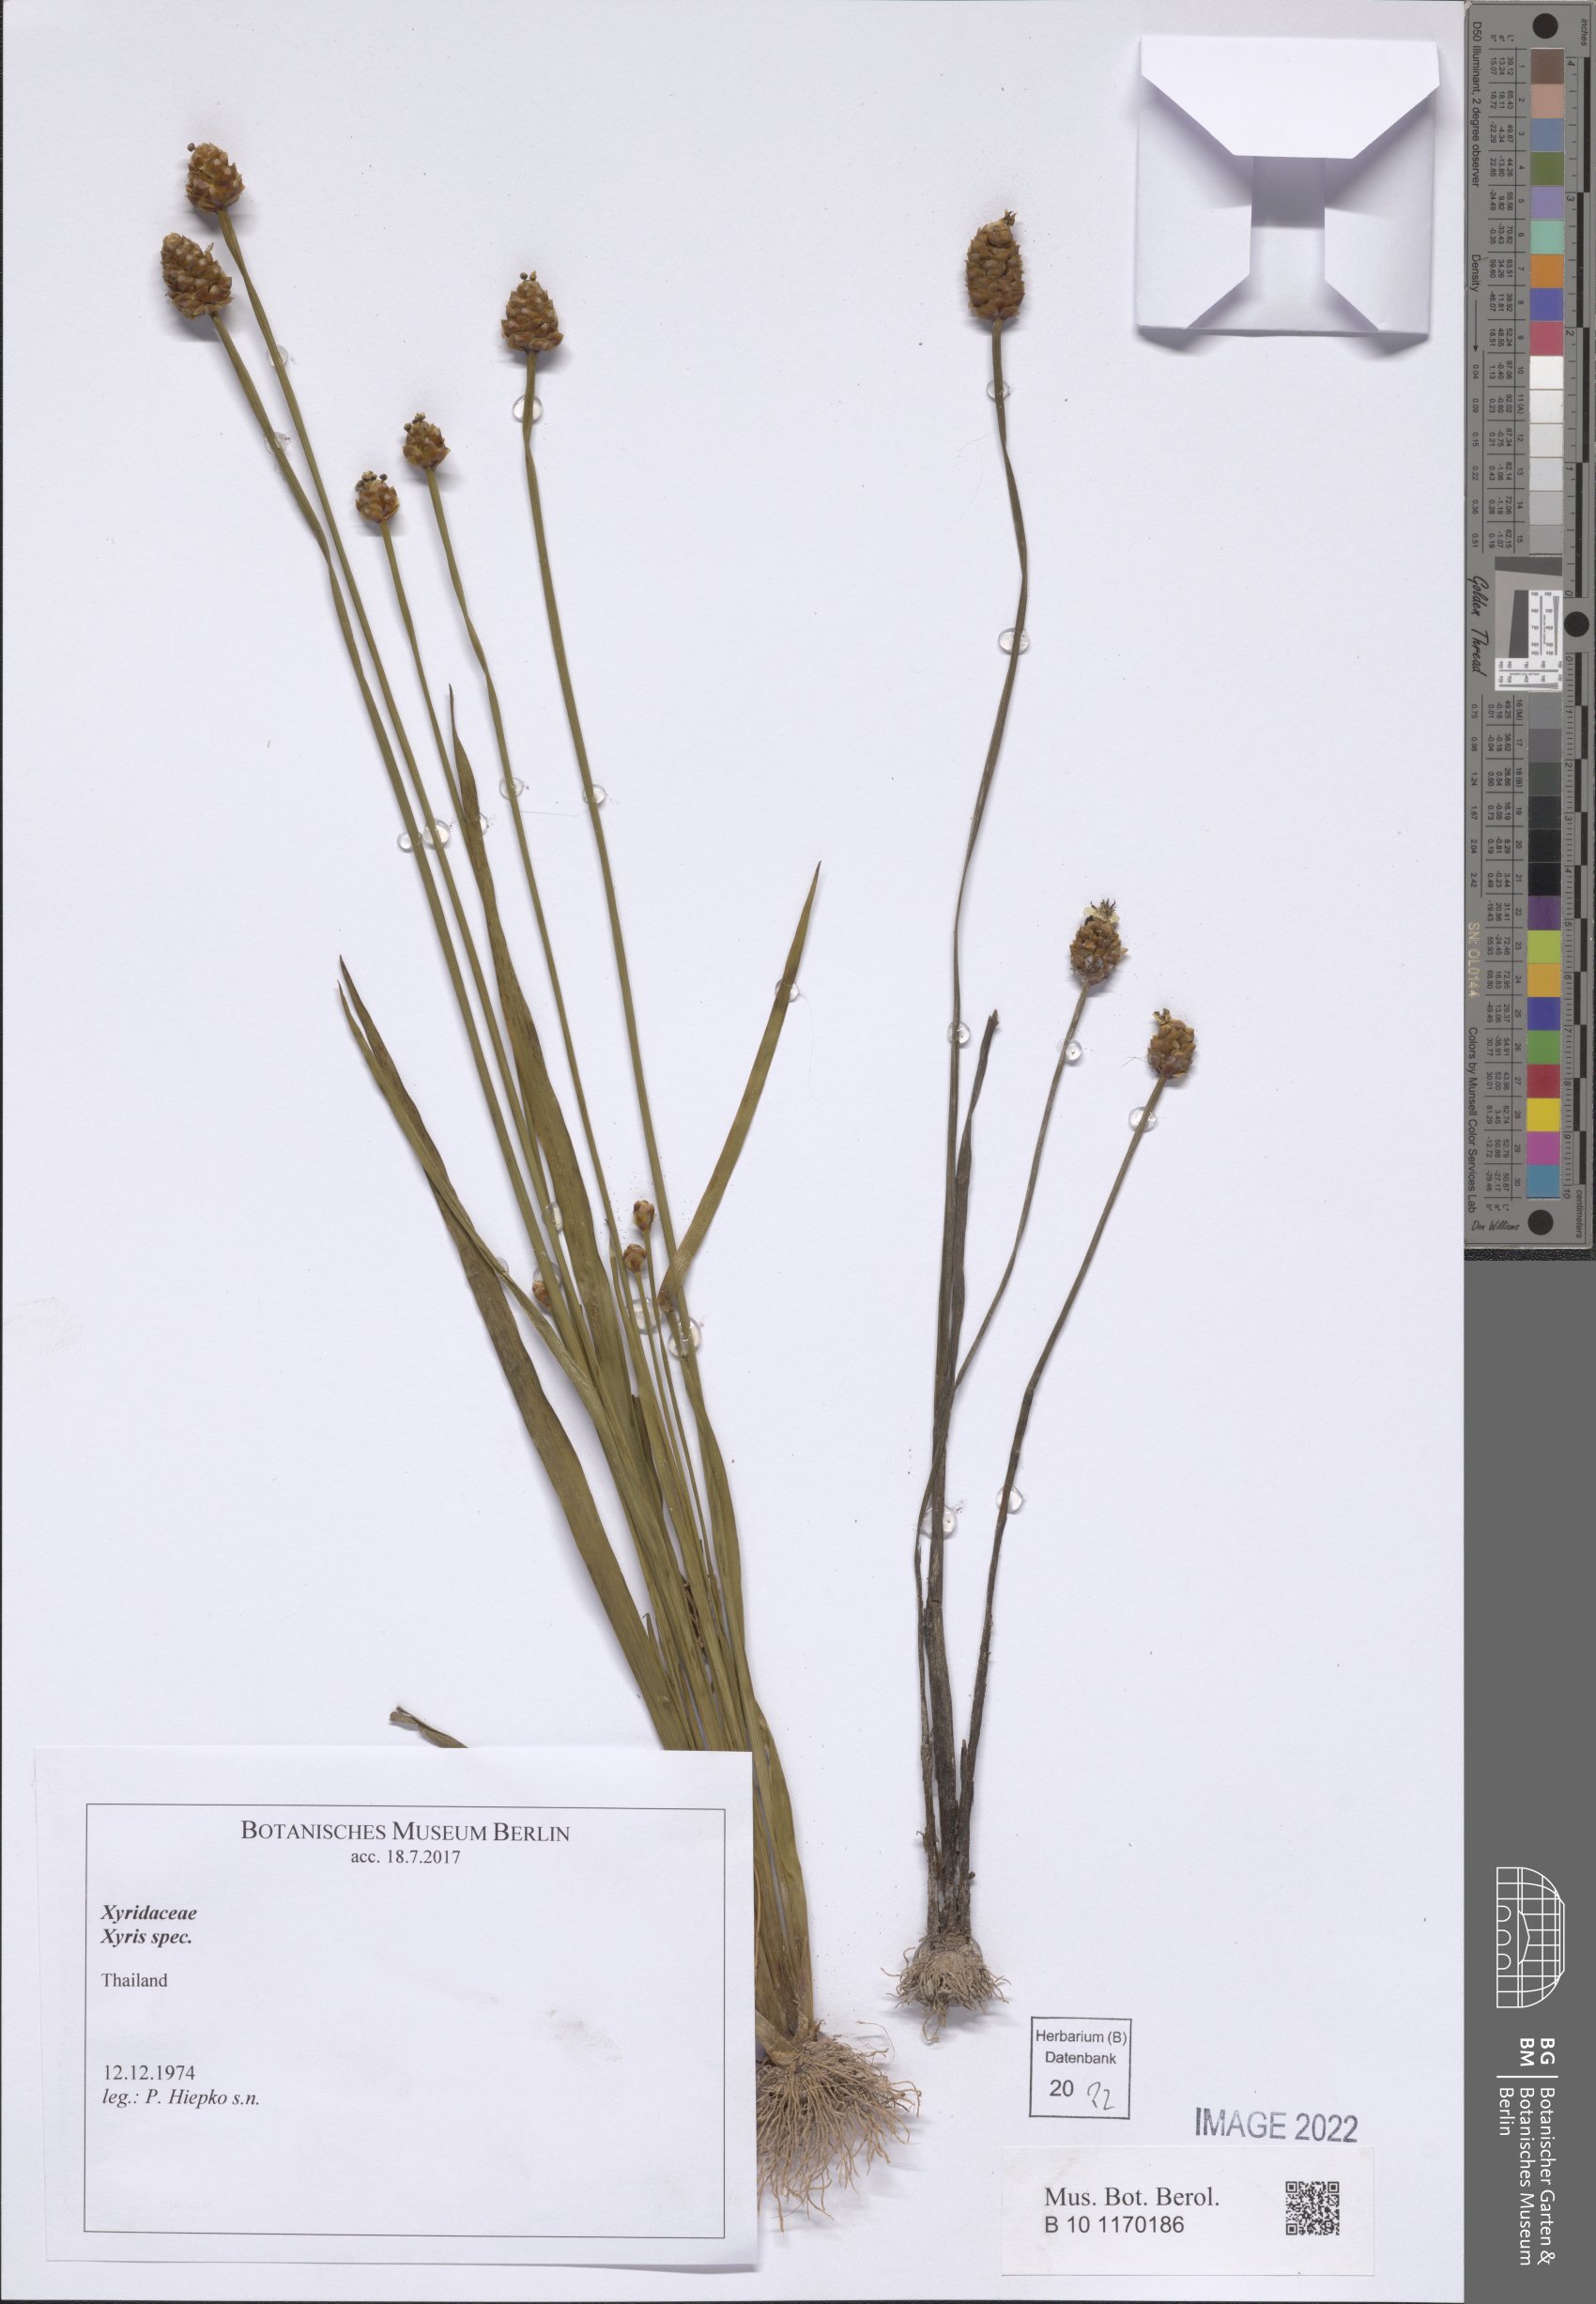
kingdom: Plantae
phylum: Tracheophyta
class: Liliopsida
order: Poales
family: Xyridaceae
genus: Xyris
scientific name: Xyris
